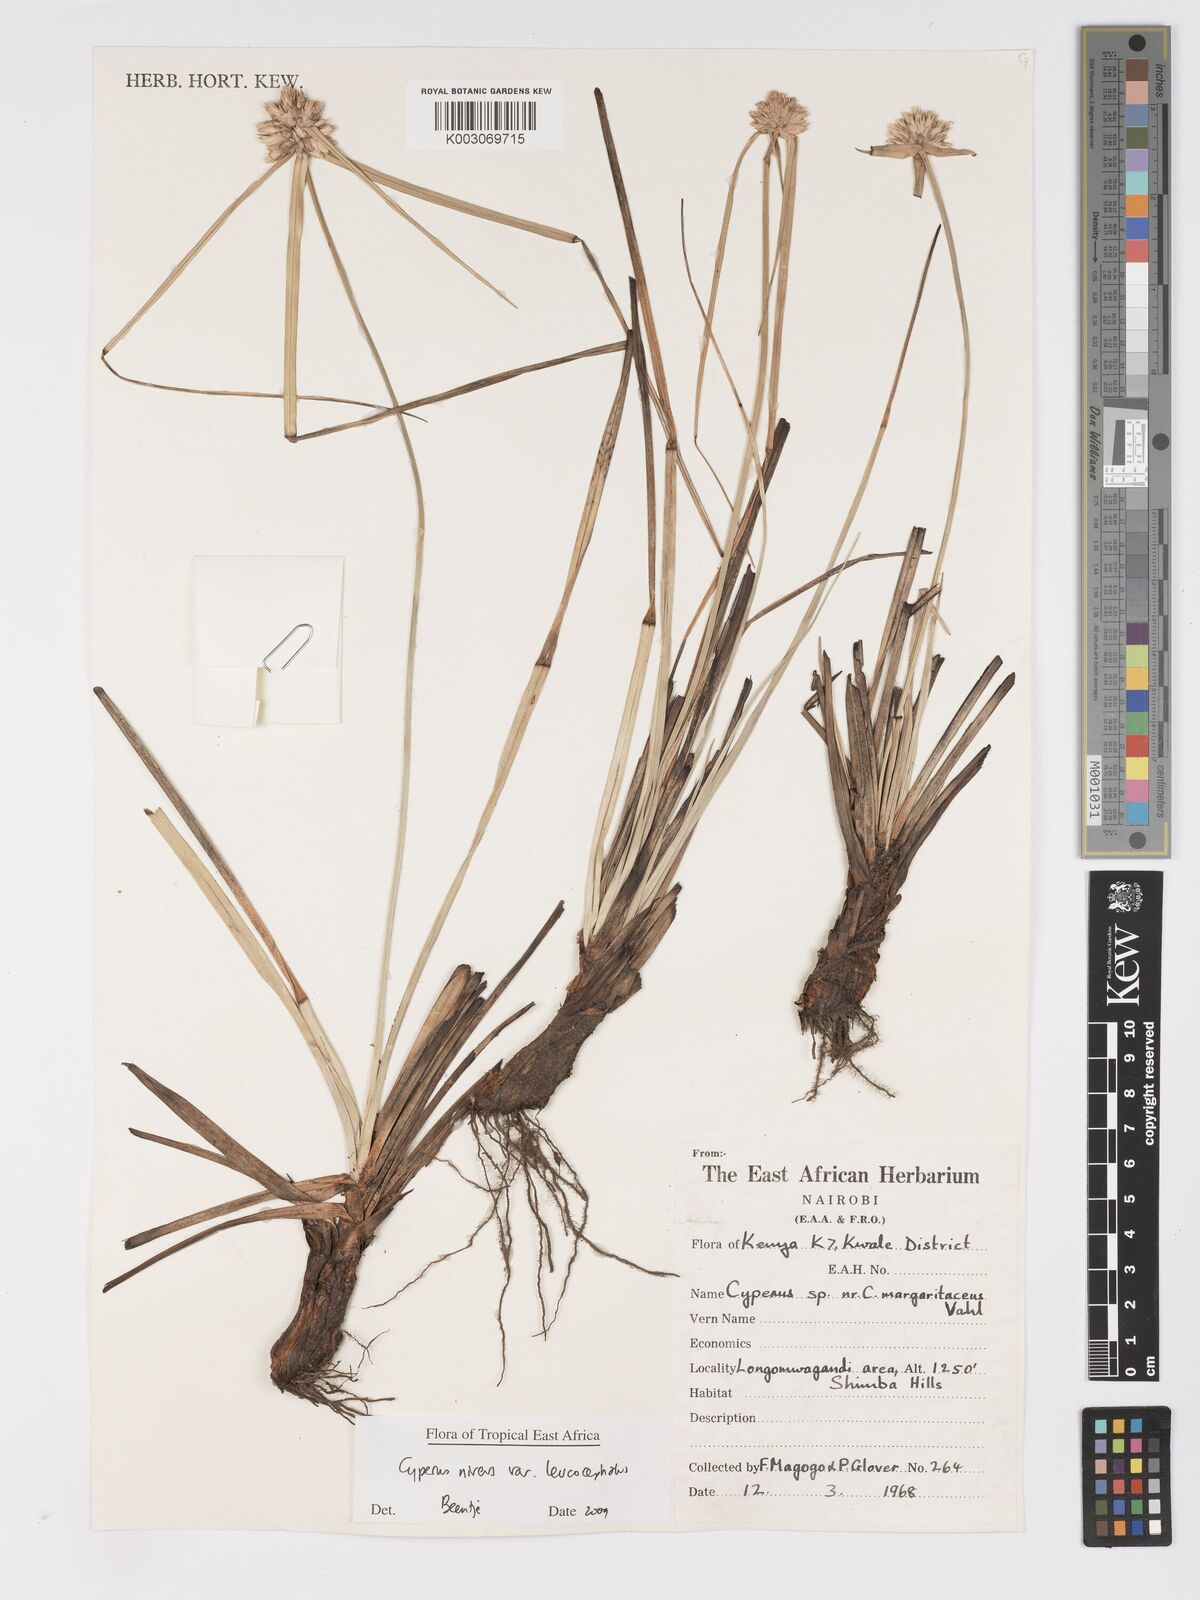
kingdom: Plantae
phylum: Tracheophyta
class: Liliopsida
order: Poales
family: Cyperaceae
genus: Cyperus
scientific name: Cyperus niveus
